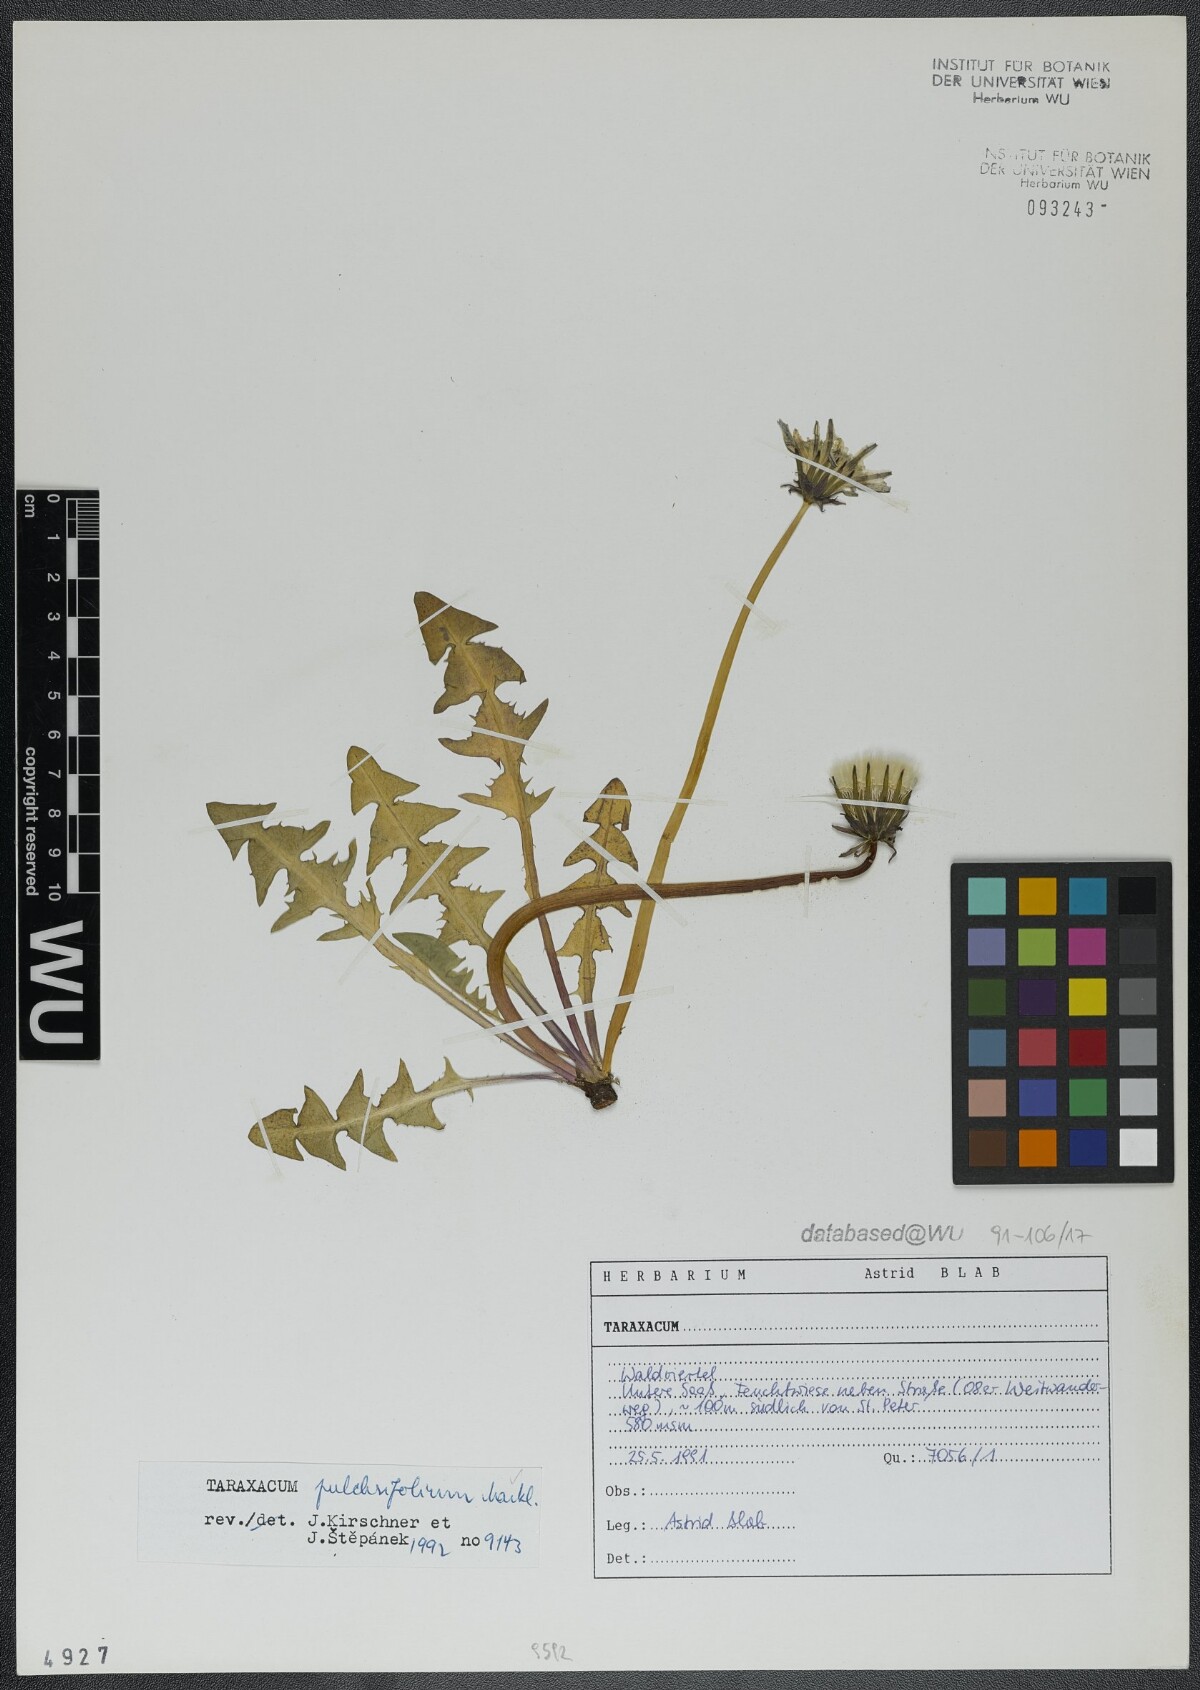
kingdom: Plantae
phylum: Tracheophyta
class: Magnoliopsida
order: Asterales
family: Asteraceae
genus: Taraxacum
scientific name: Taraxacum pulchrifolium
